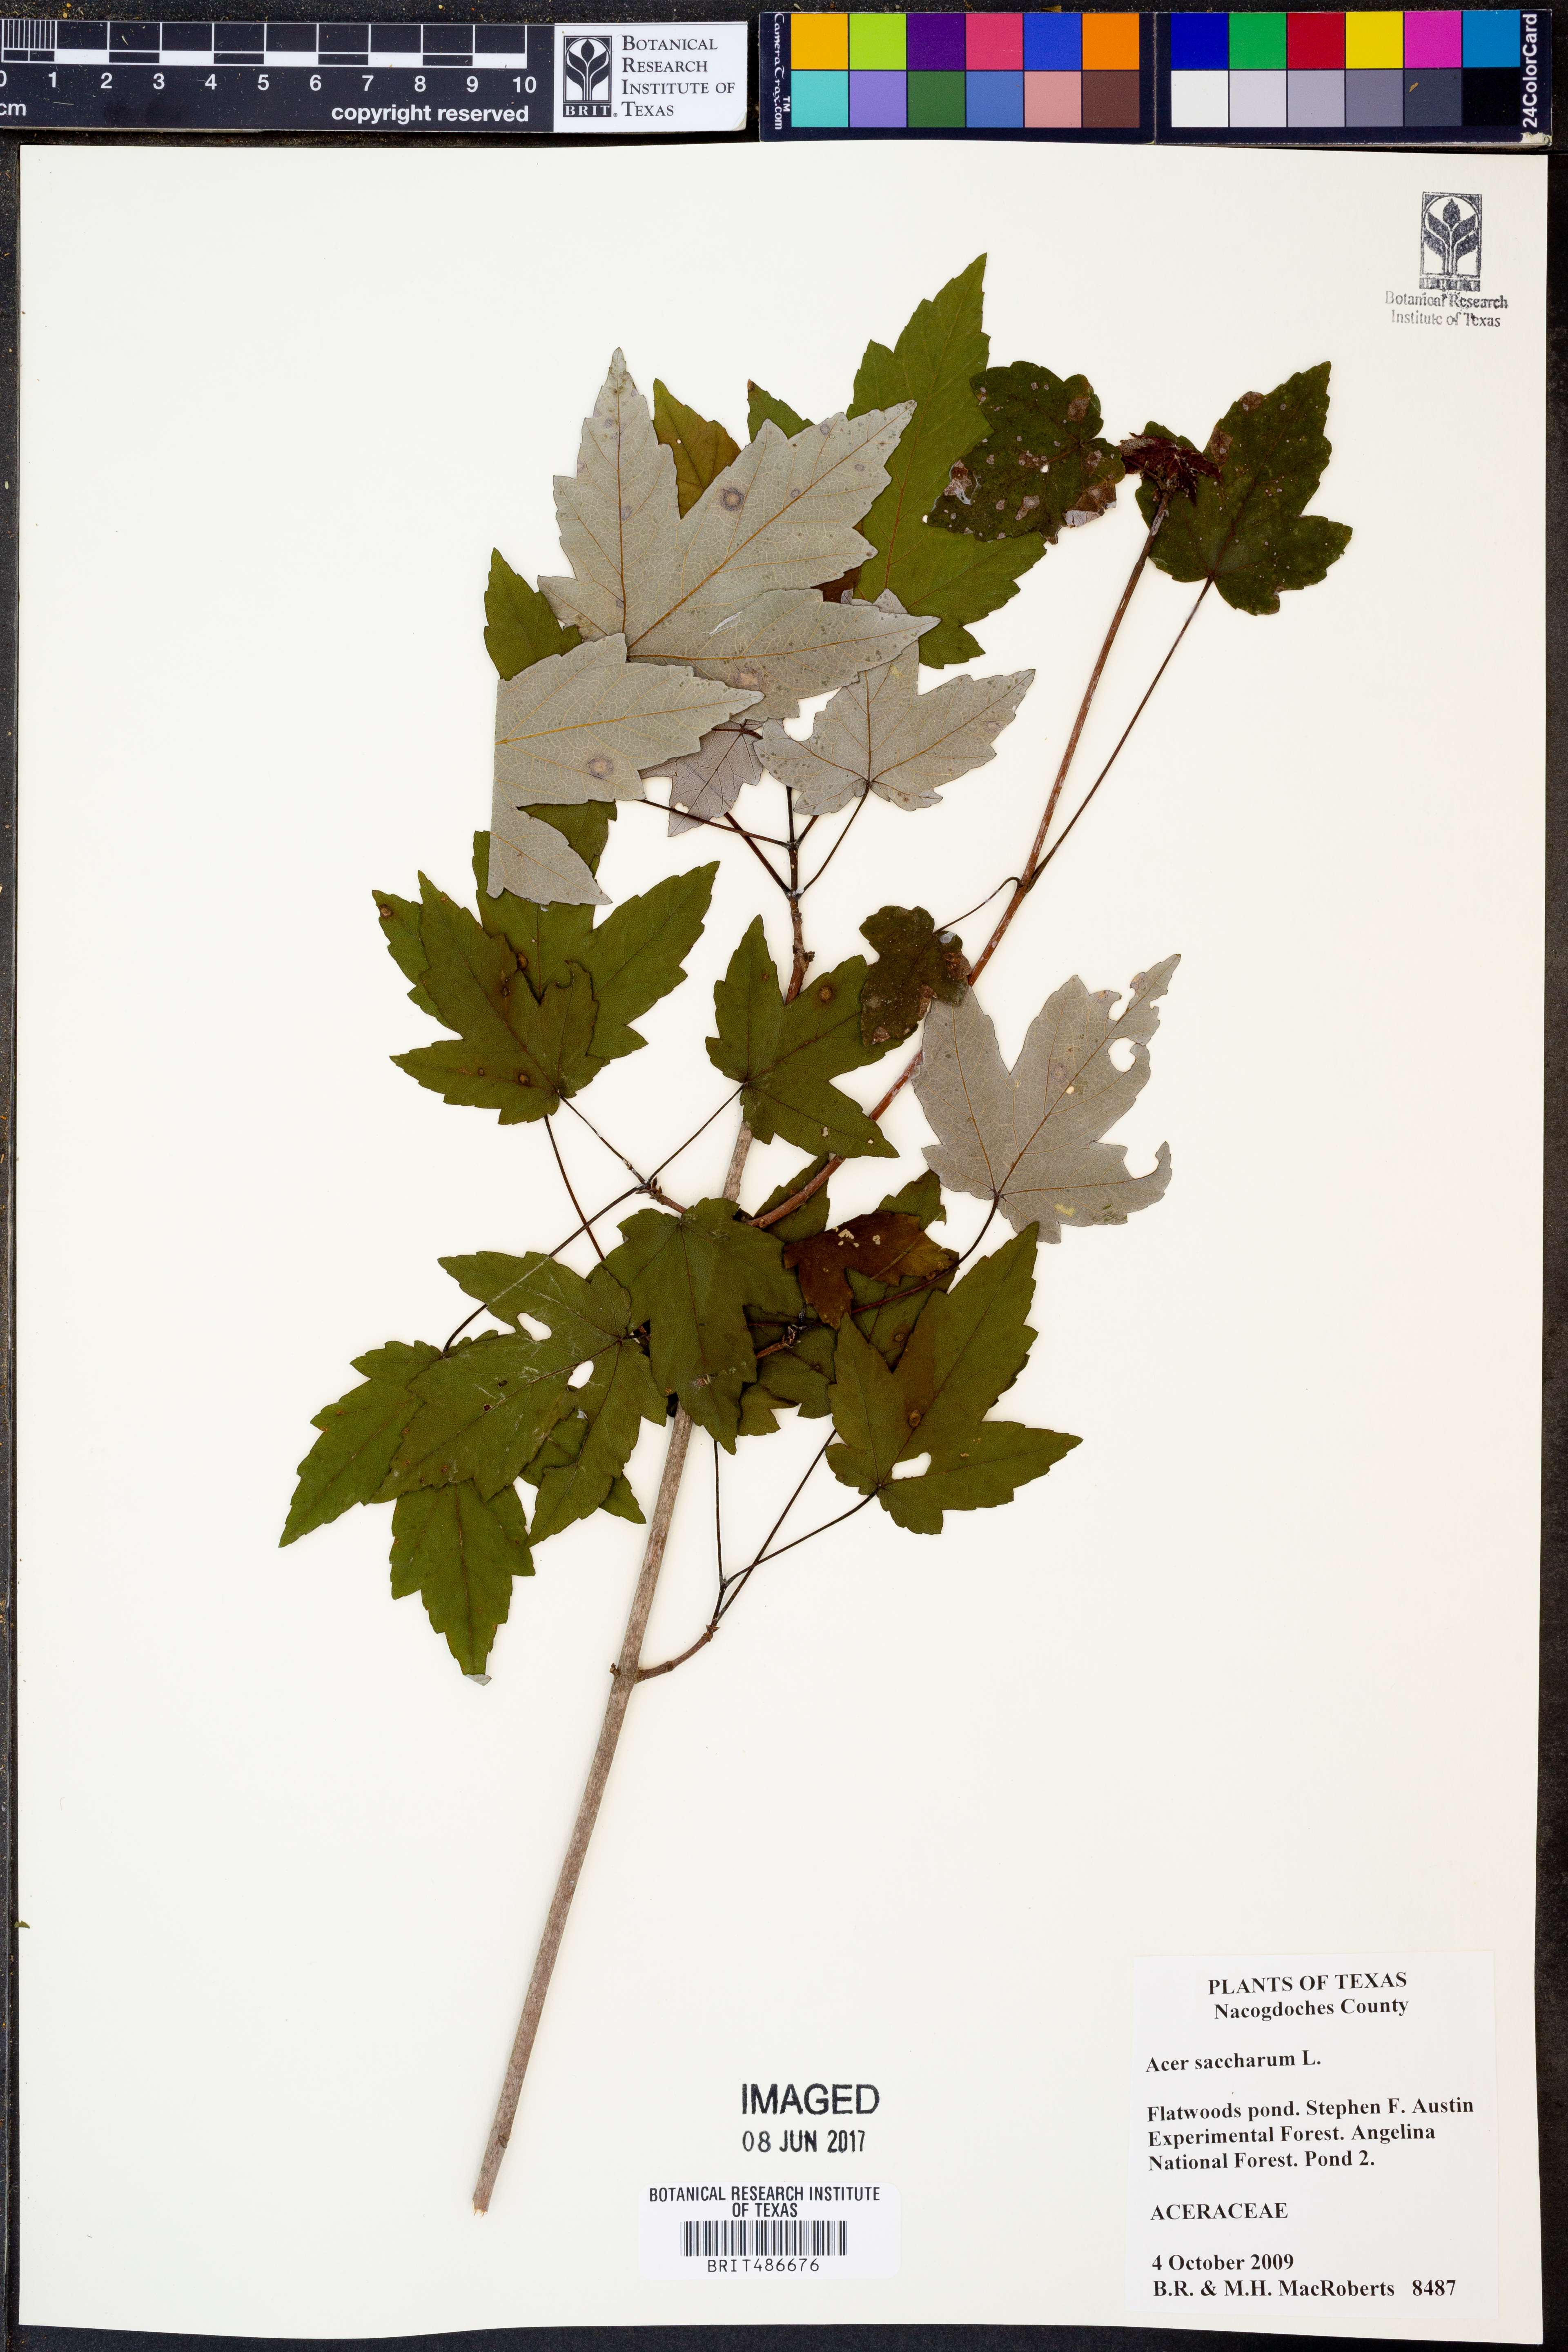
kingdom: Plantae
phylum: Tracheophyta
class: Magnoliopsida
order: Sapindales
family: Sapindaceae
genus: Acer
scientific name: Acer saccharum
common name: Sugar maple
